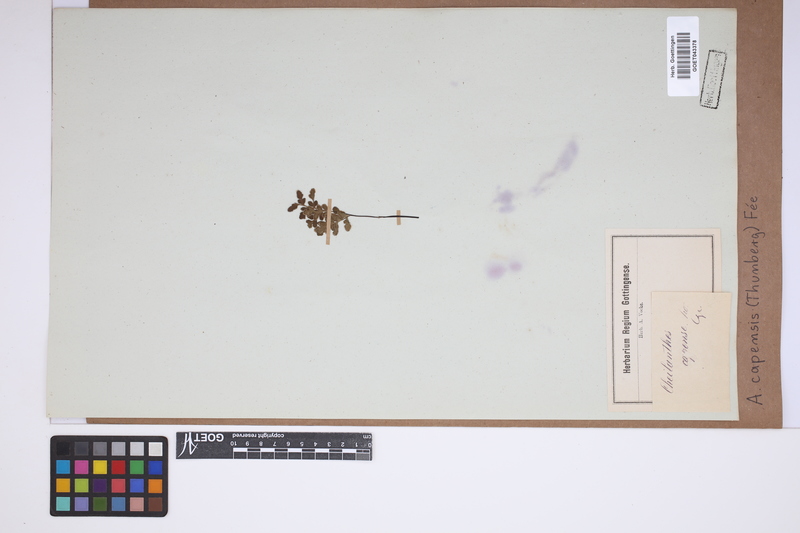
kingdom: Plantae
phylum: Tracheophyta
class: Polypodiopsida
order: Polypodiales
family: Pteridaceae
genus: Cheilanthes
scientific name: Cheilanthes capensis
